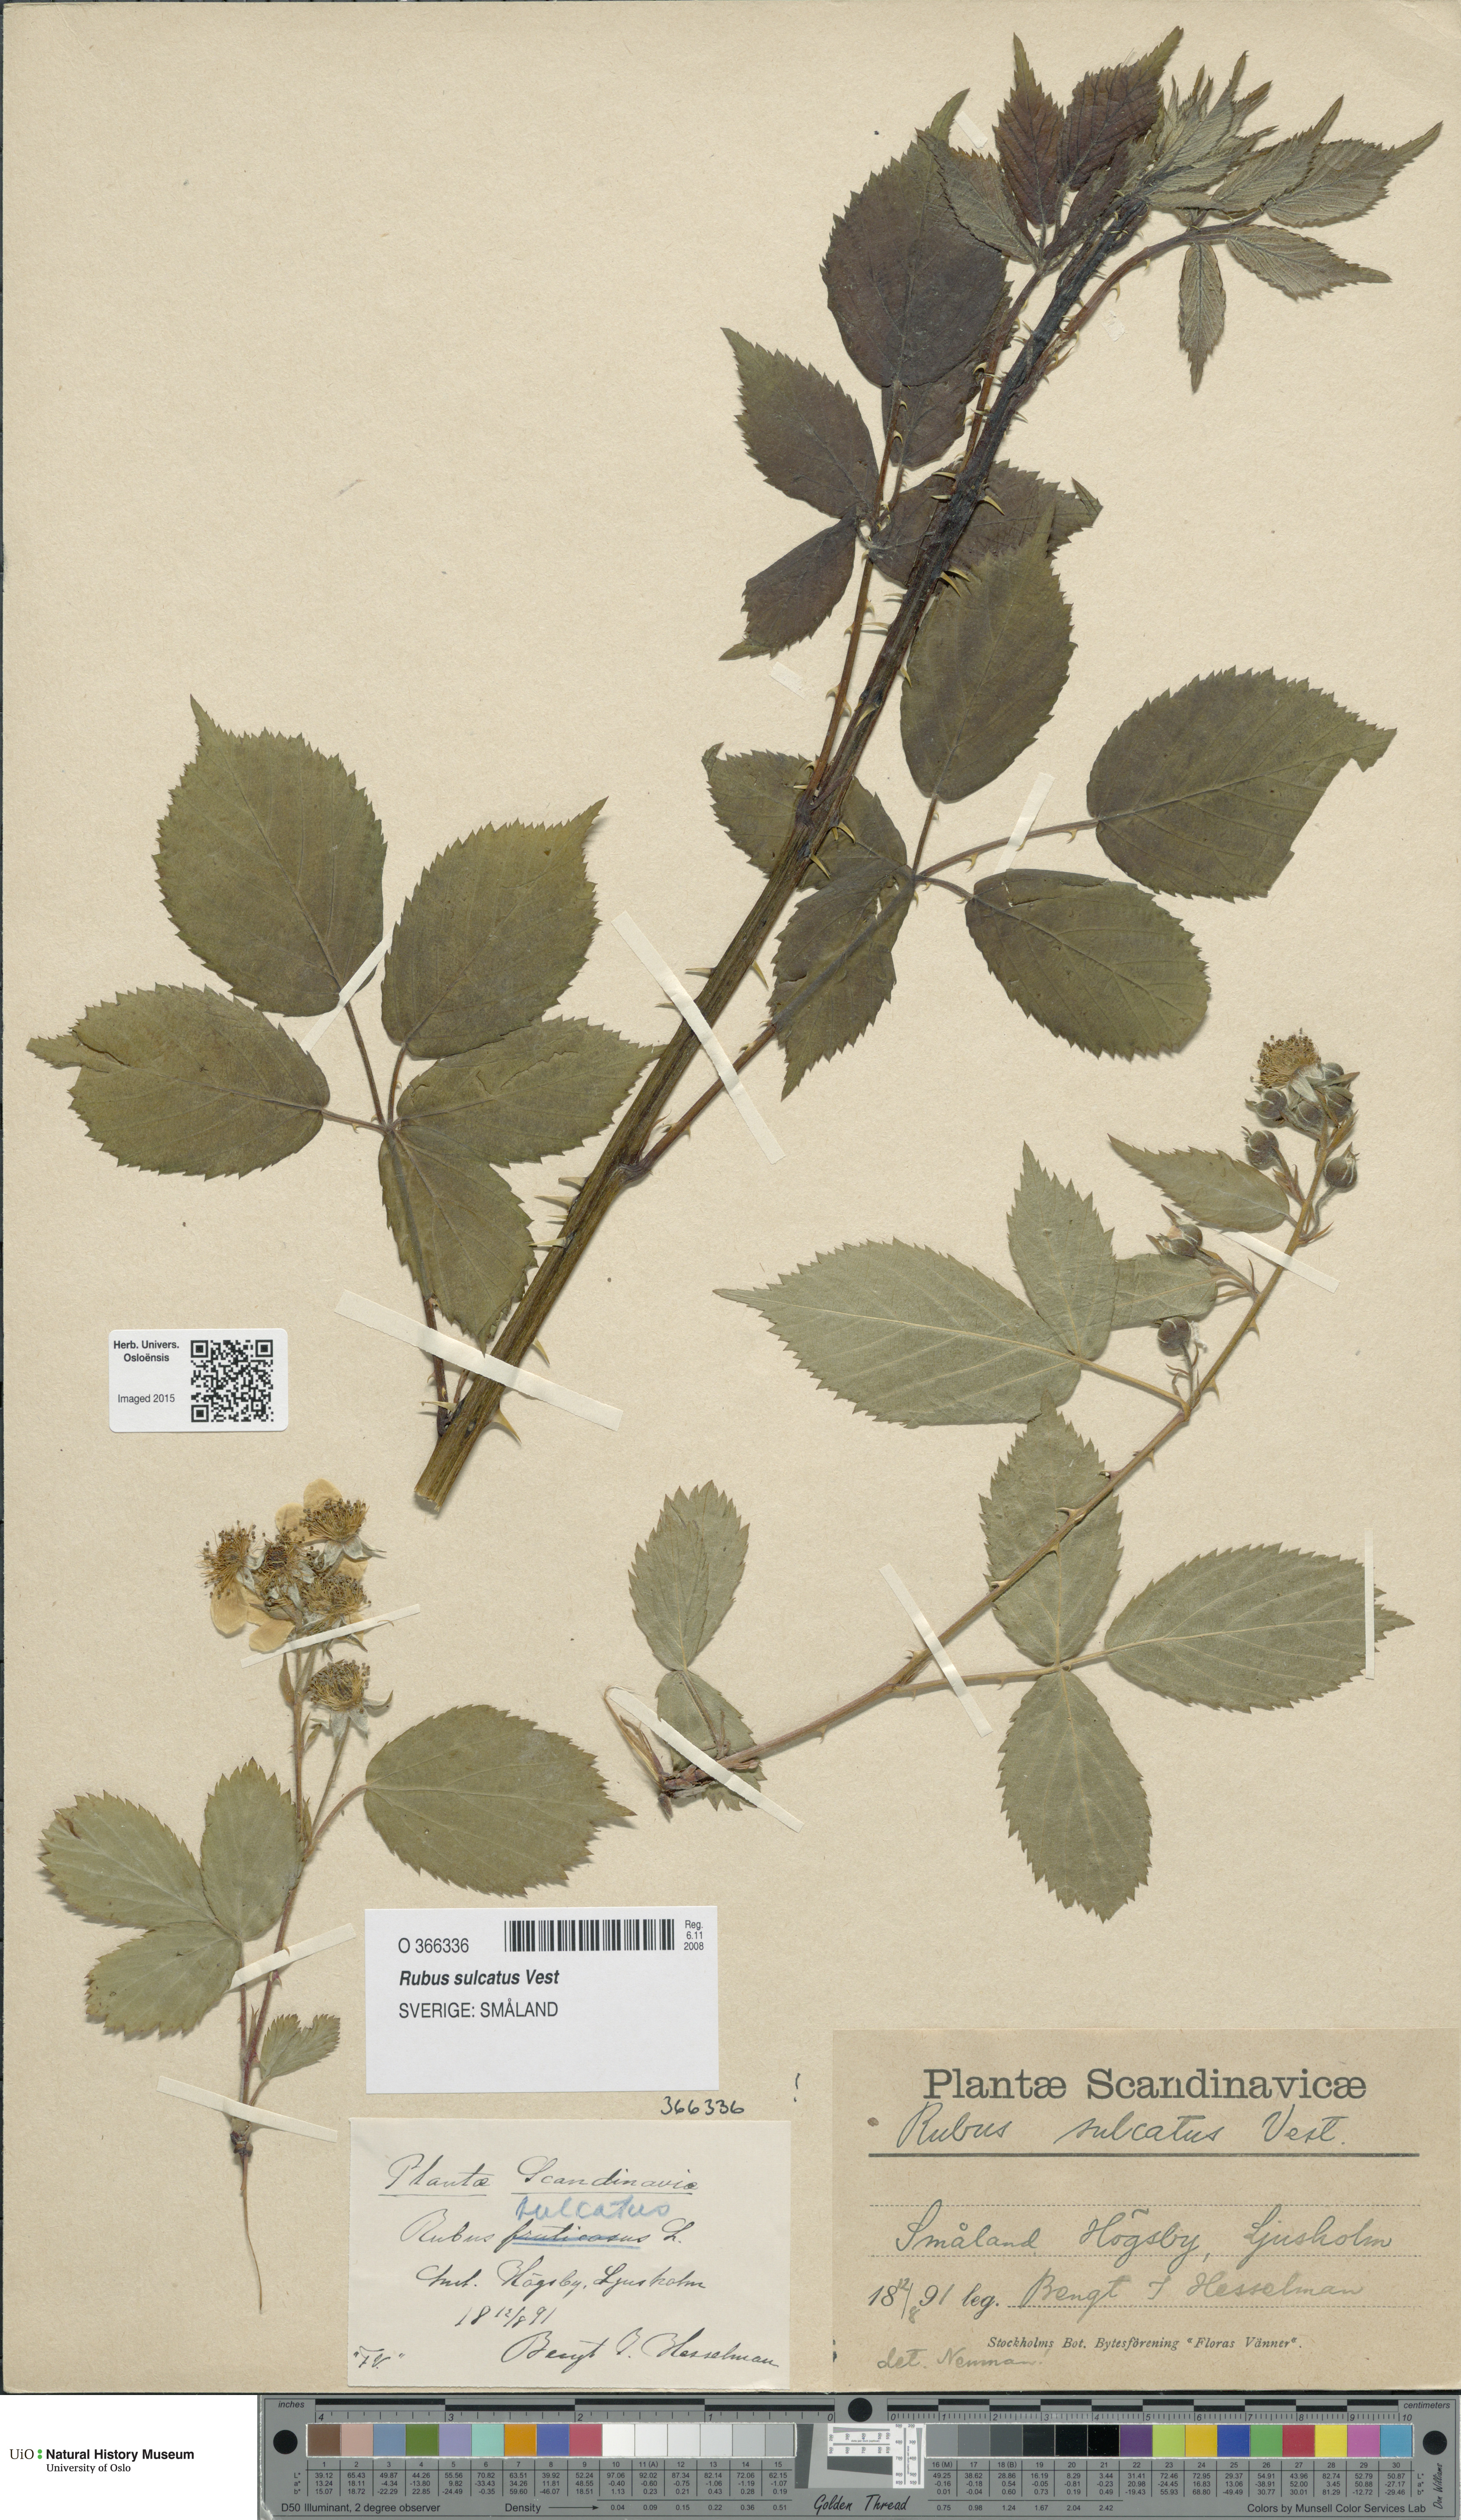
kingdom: Plantae
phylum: Tracheophyta
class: Magnoliopsida
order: Rosales
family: Rosaceae
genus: Rubus
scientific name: Rubus sulcatus
